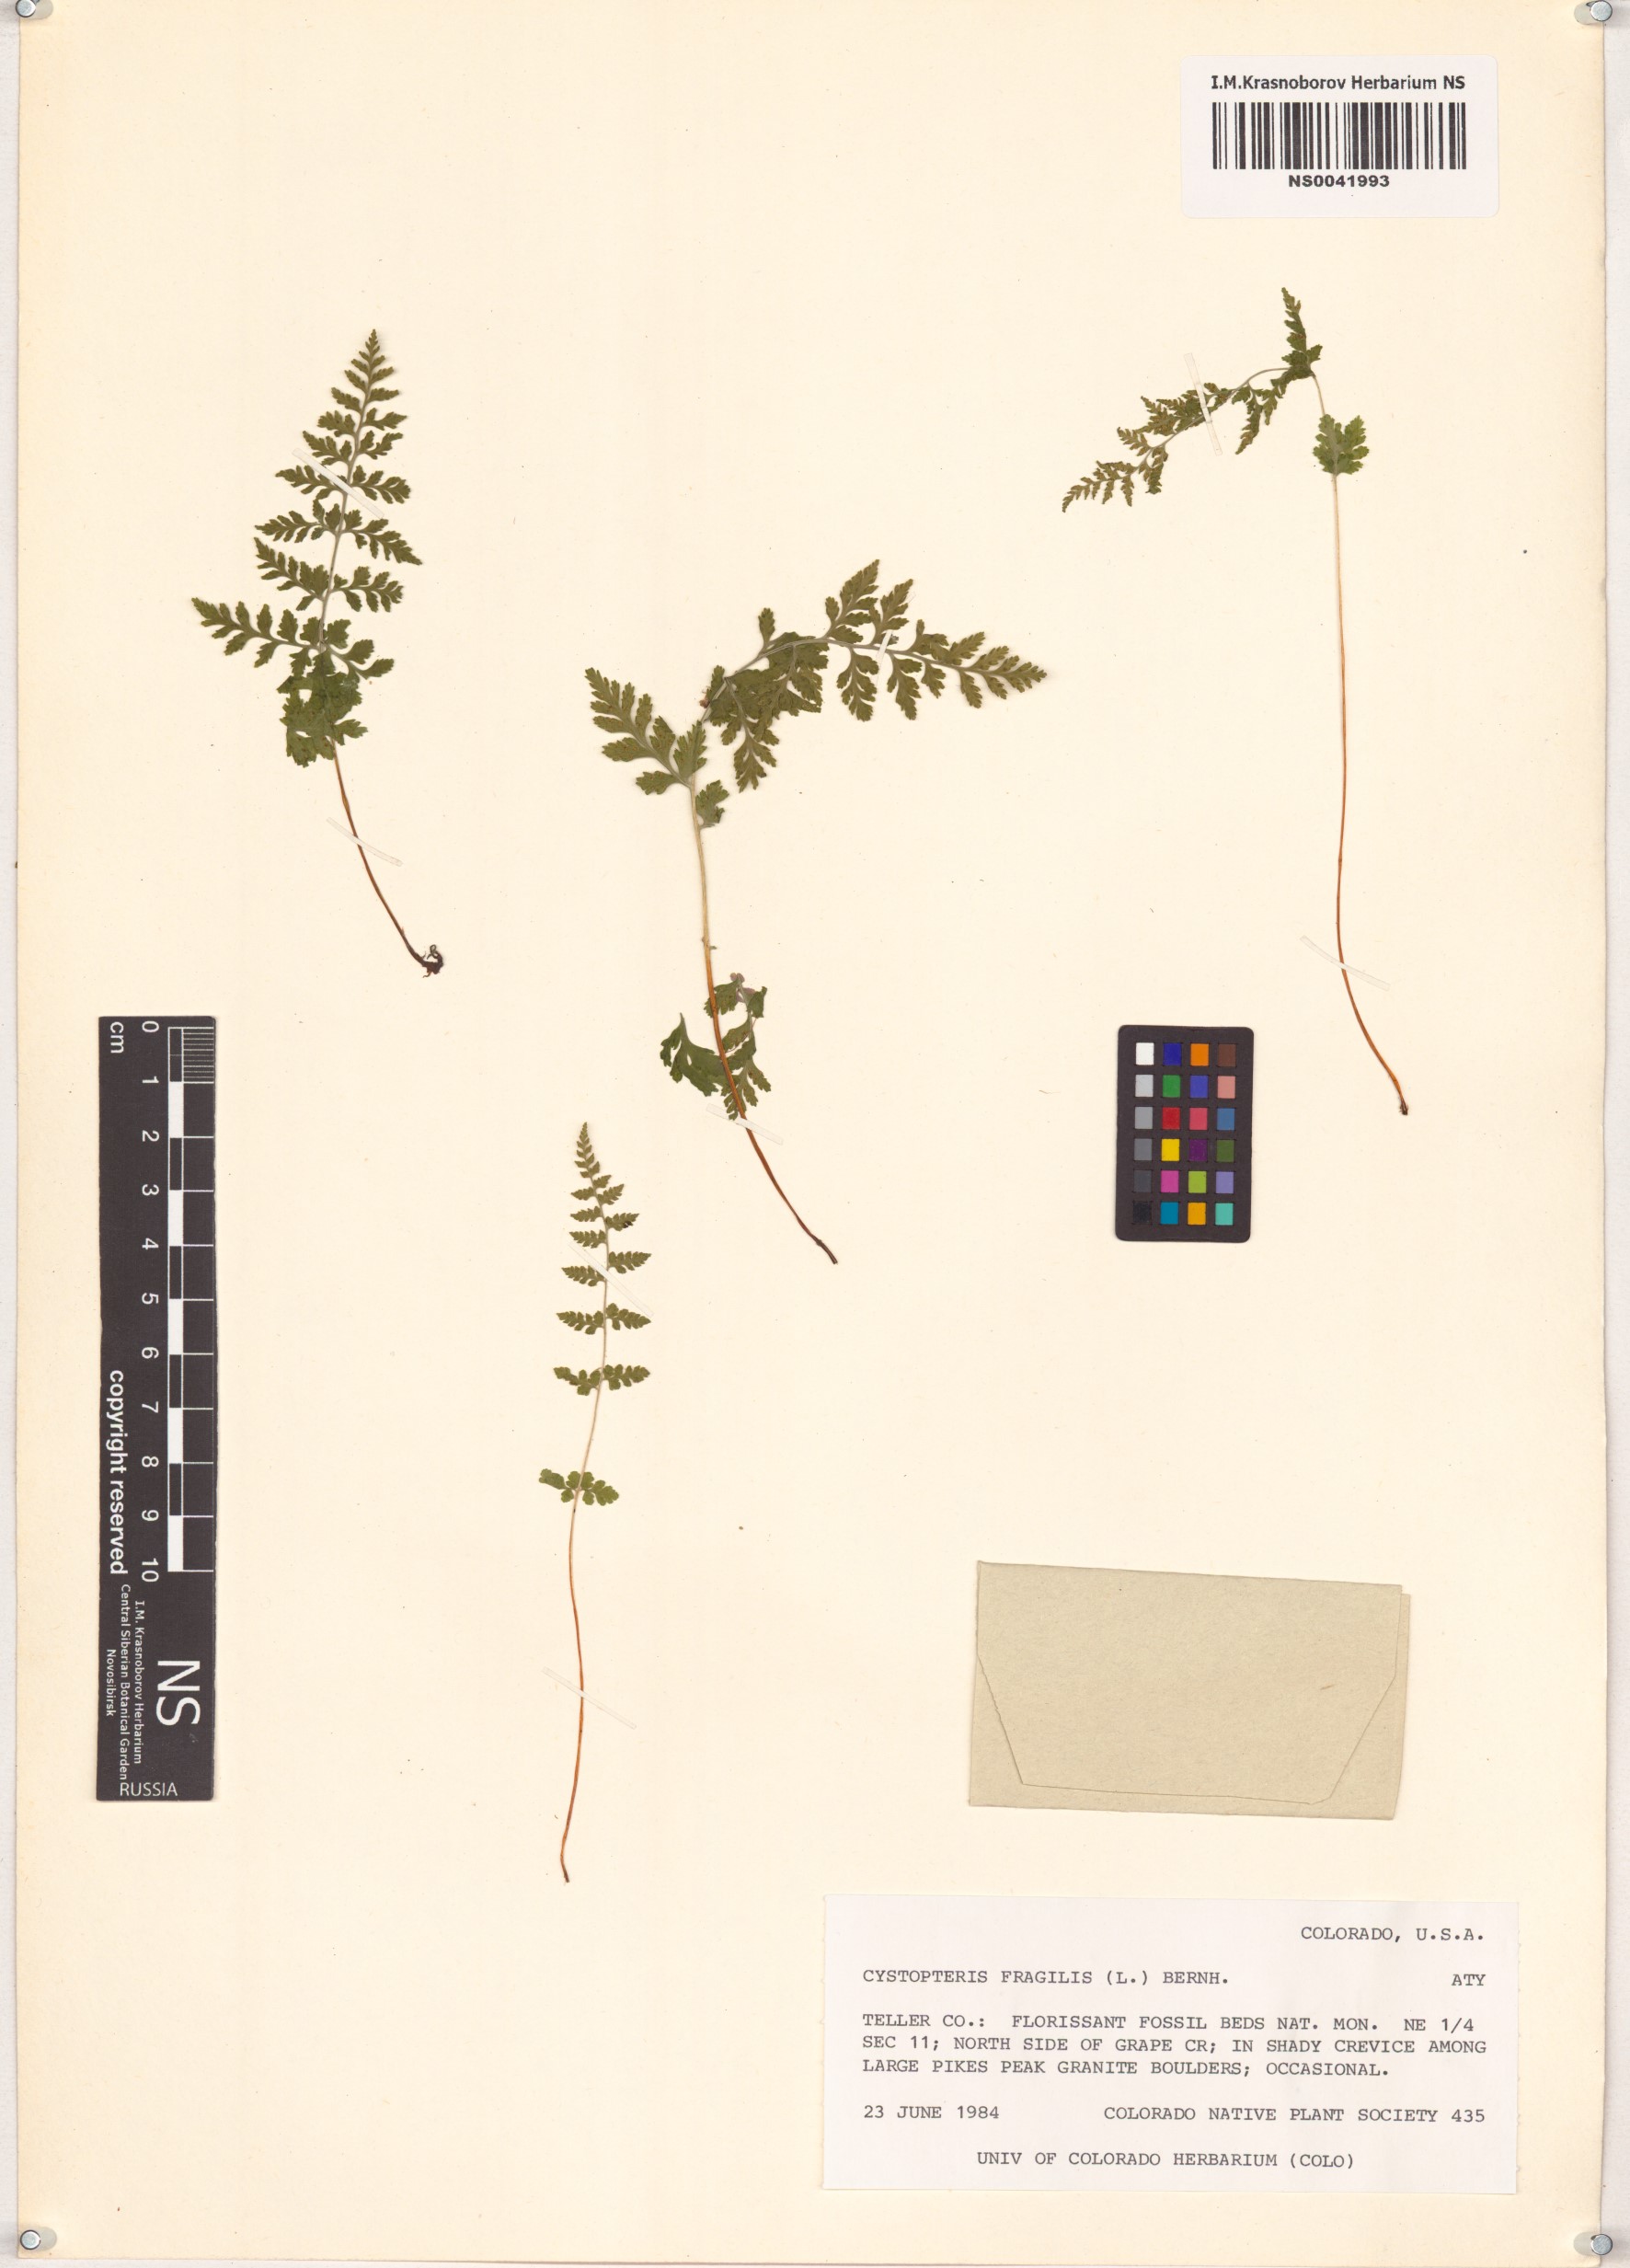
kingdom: Plantae
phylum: Tracheophyta
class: Polypodiopsida
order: Polypodiales
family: Cystopteridaceae
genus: Cystopteris
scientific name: Cystopteris fragilis
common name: Brittle bladder fern
